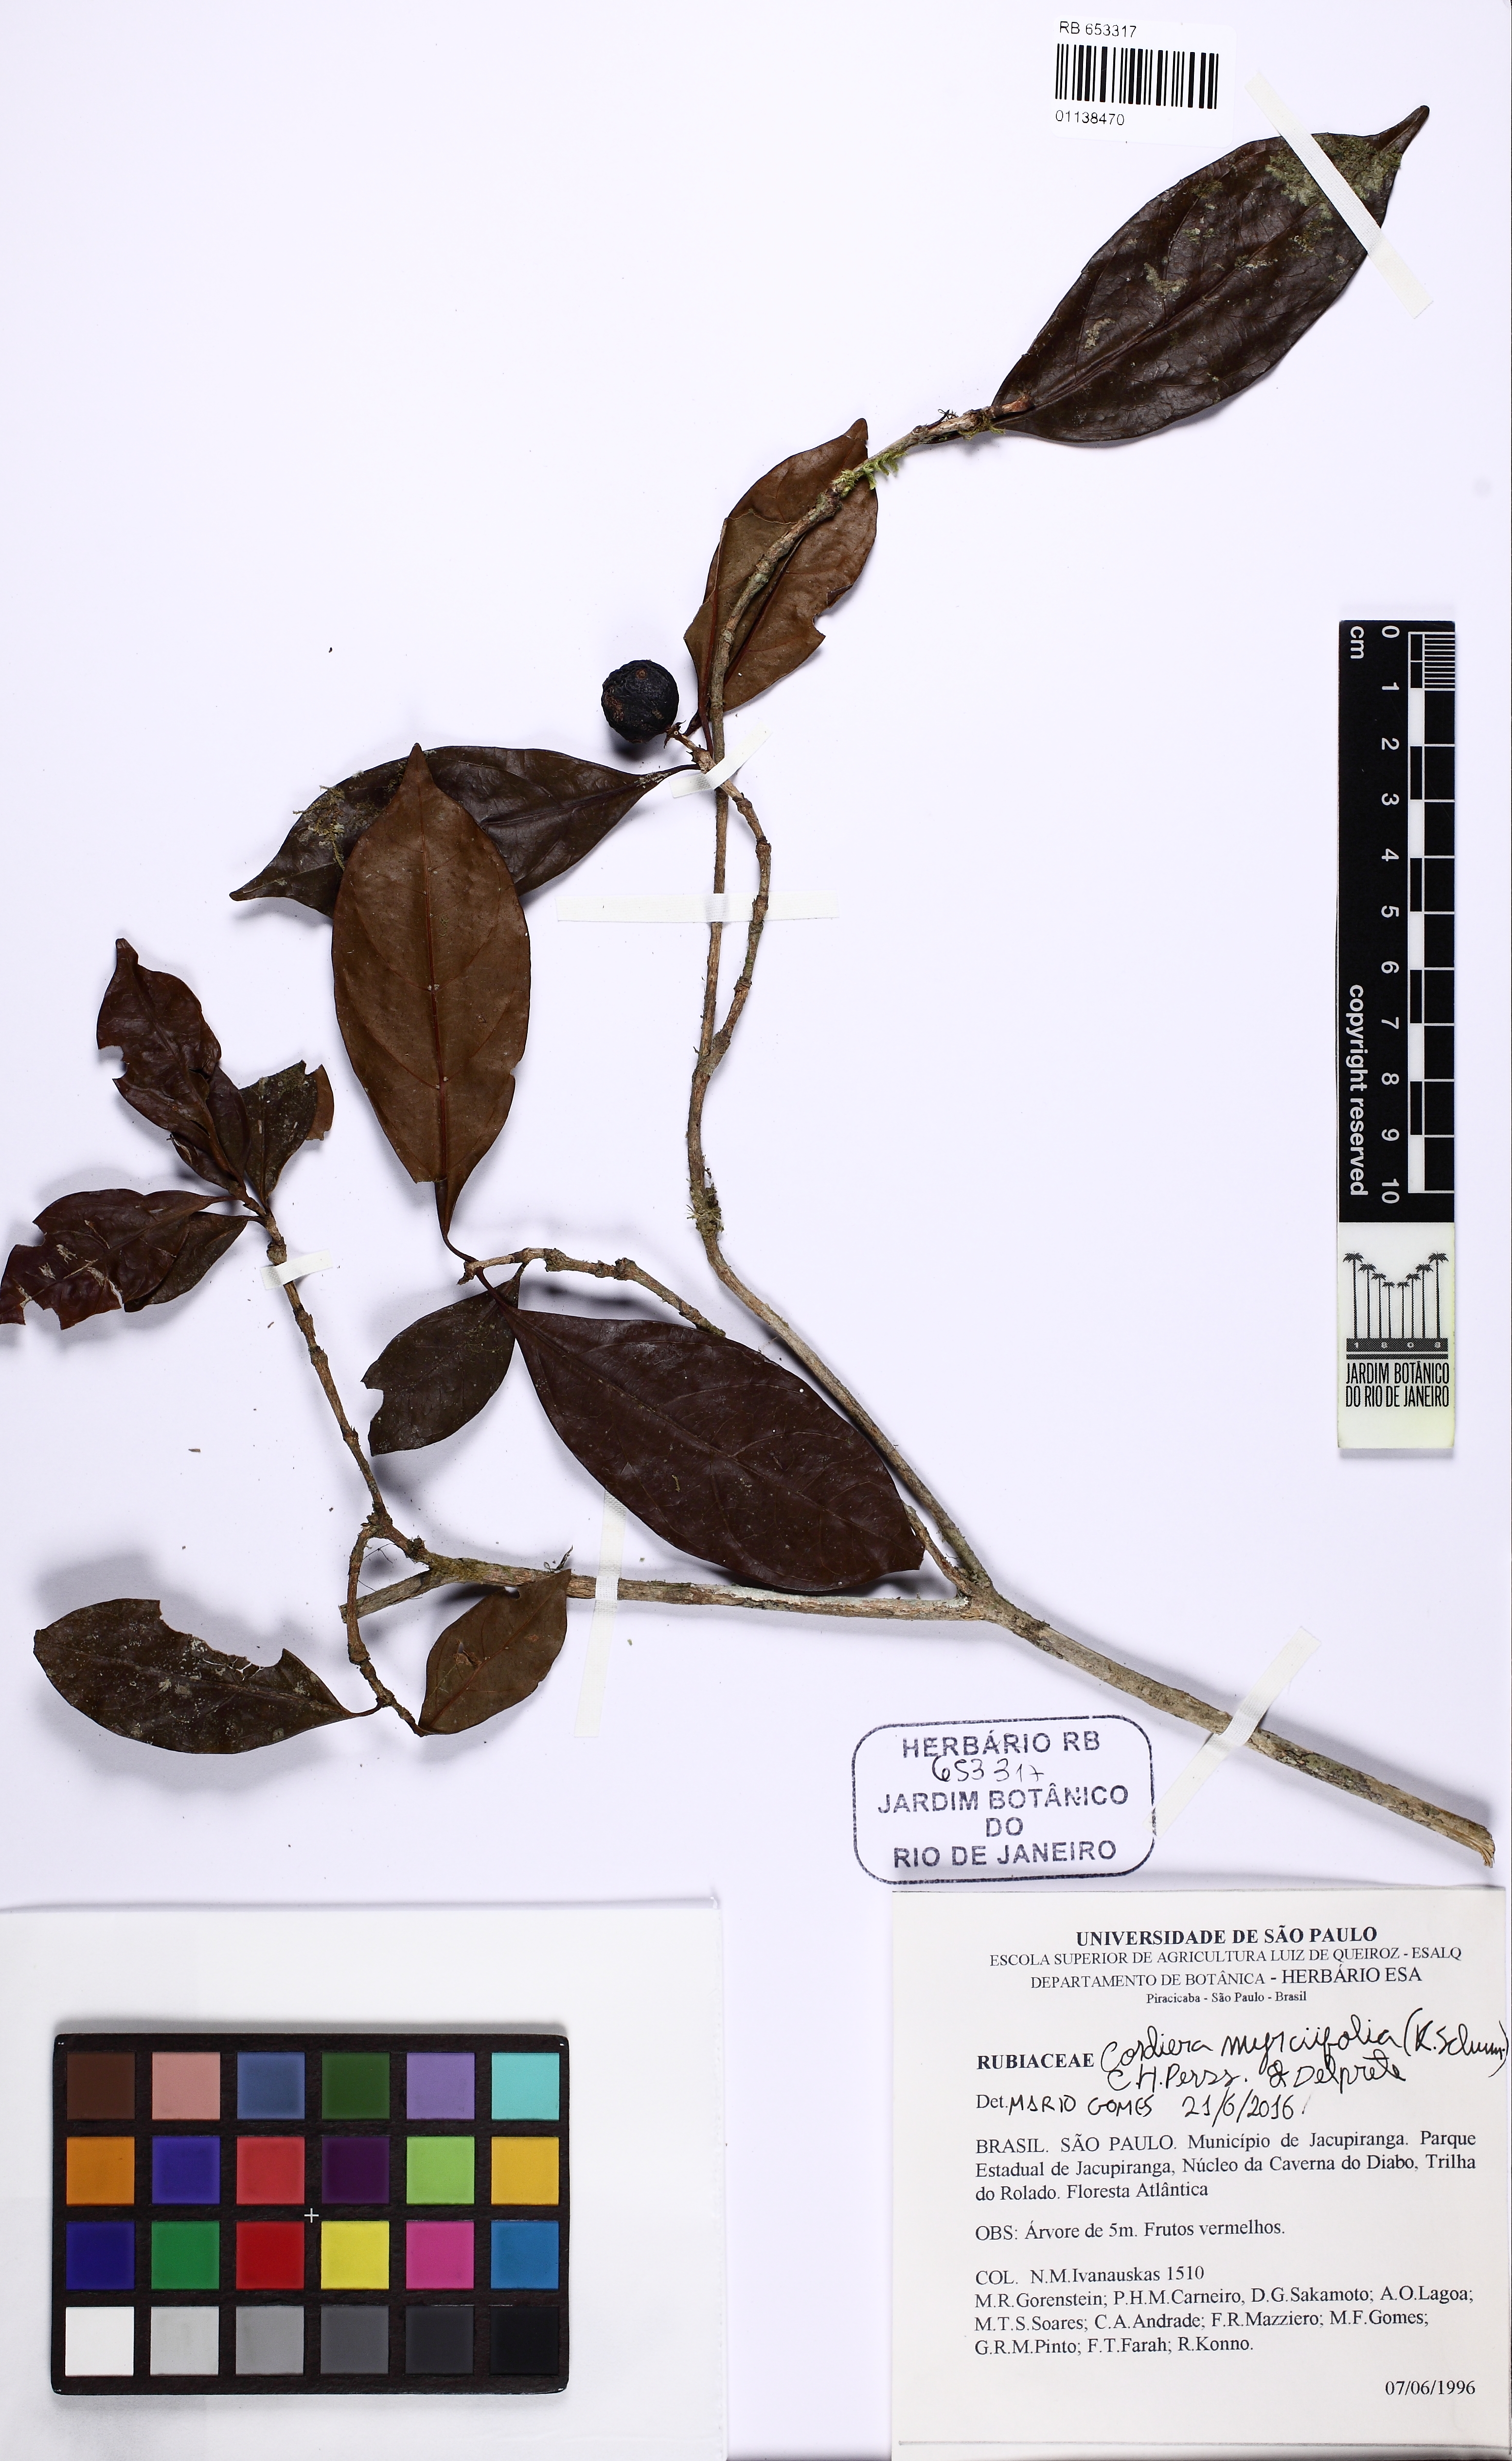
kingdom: Plantae
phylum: Tracheophyta
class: Magnoliopsida
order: Gentianales
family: Rubiaceae
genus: Cordiera
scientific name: Cordiera myrciifolia
